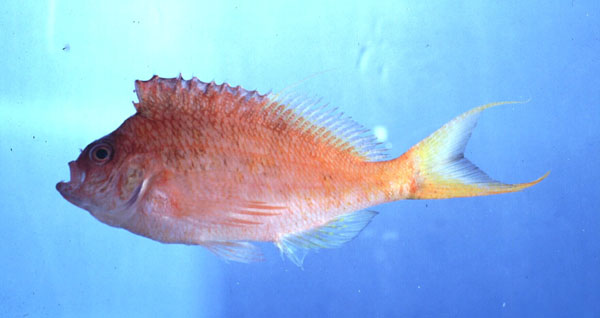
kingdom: Animalia
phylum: Chordata
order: Perciformes
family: Cirrhitidae
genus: Cyprinocirrhites
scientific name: Cyprinocirrhites polyactis
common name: Swallowtail hawkfish
